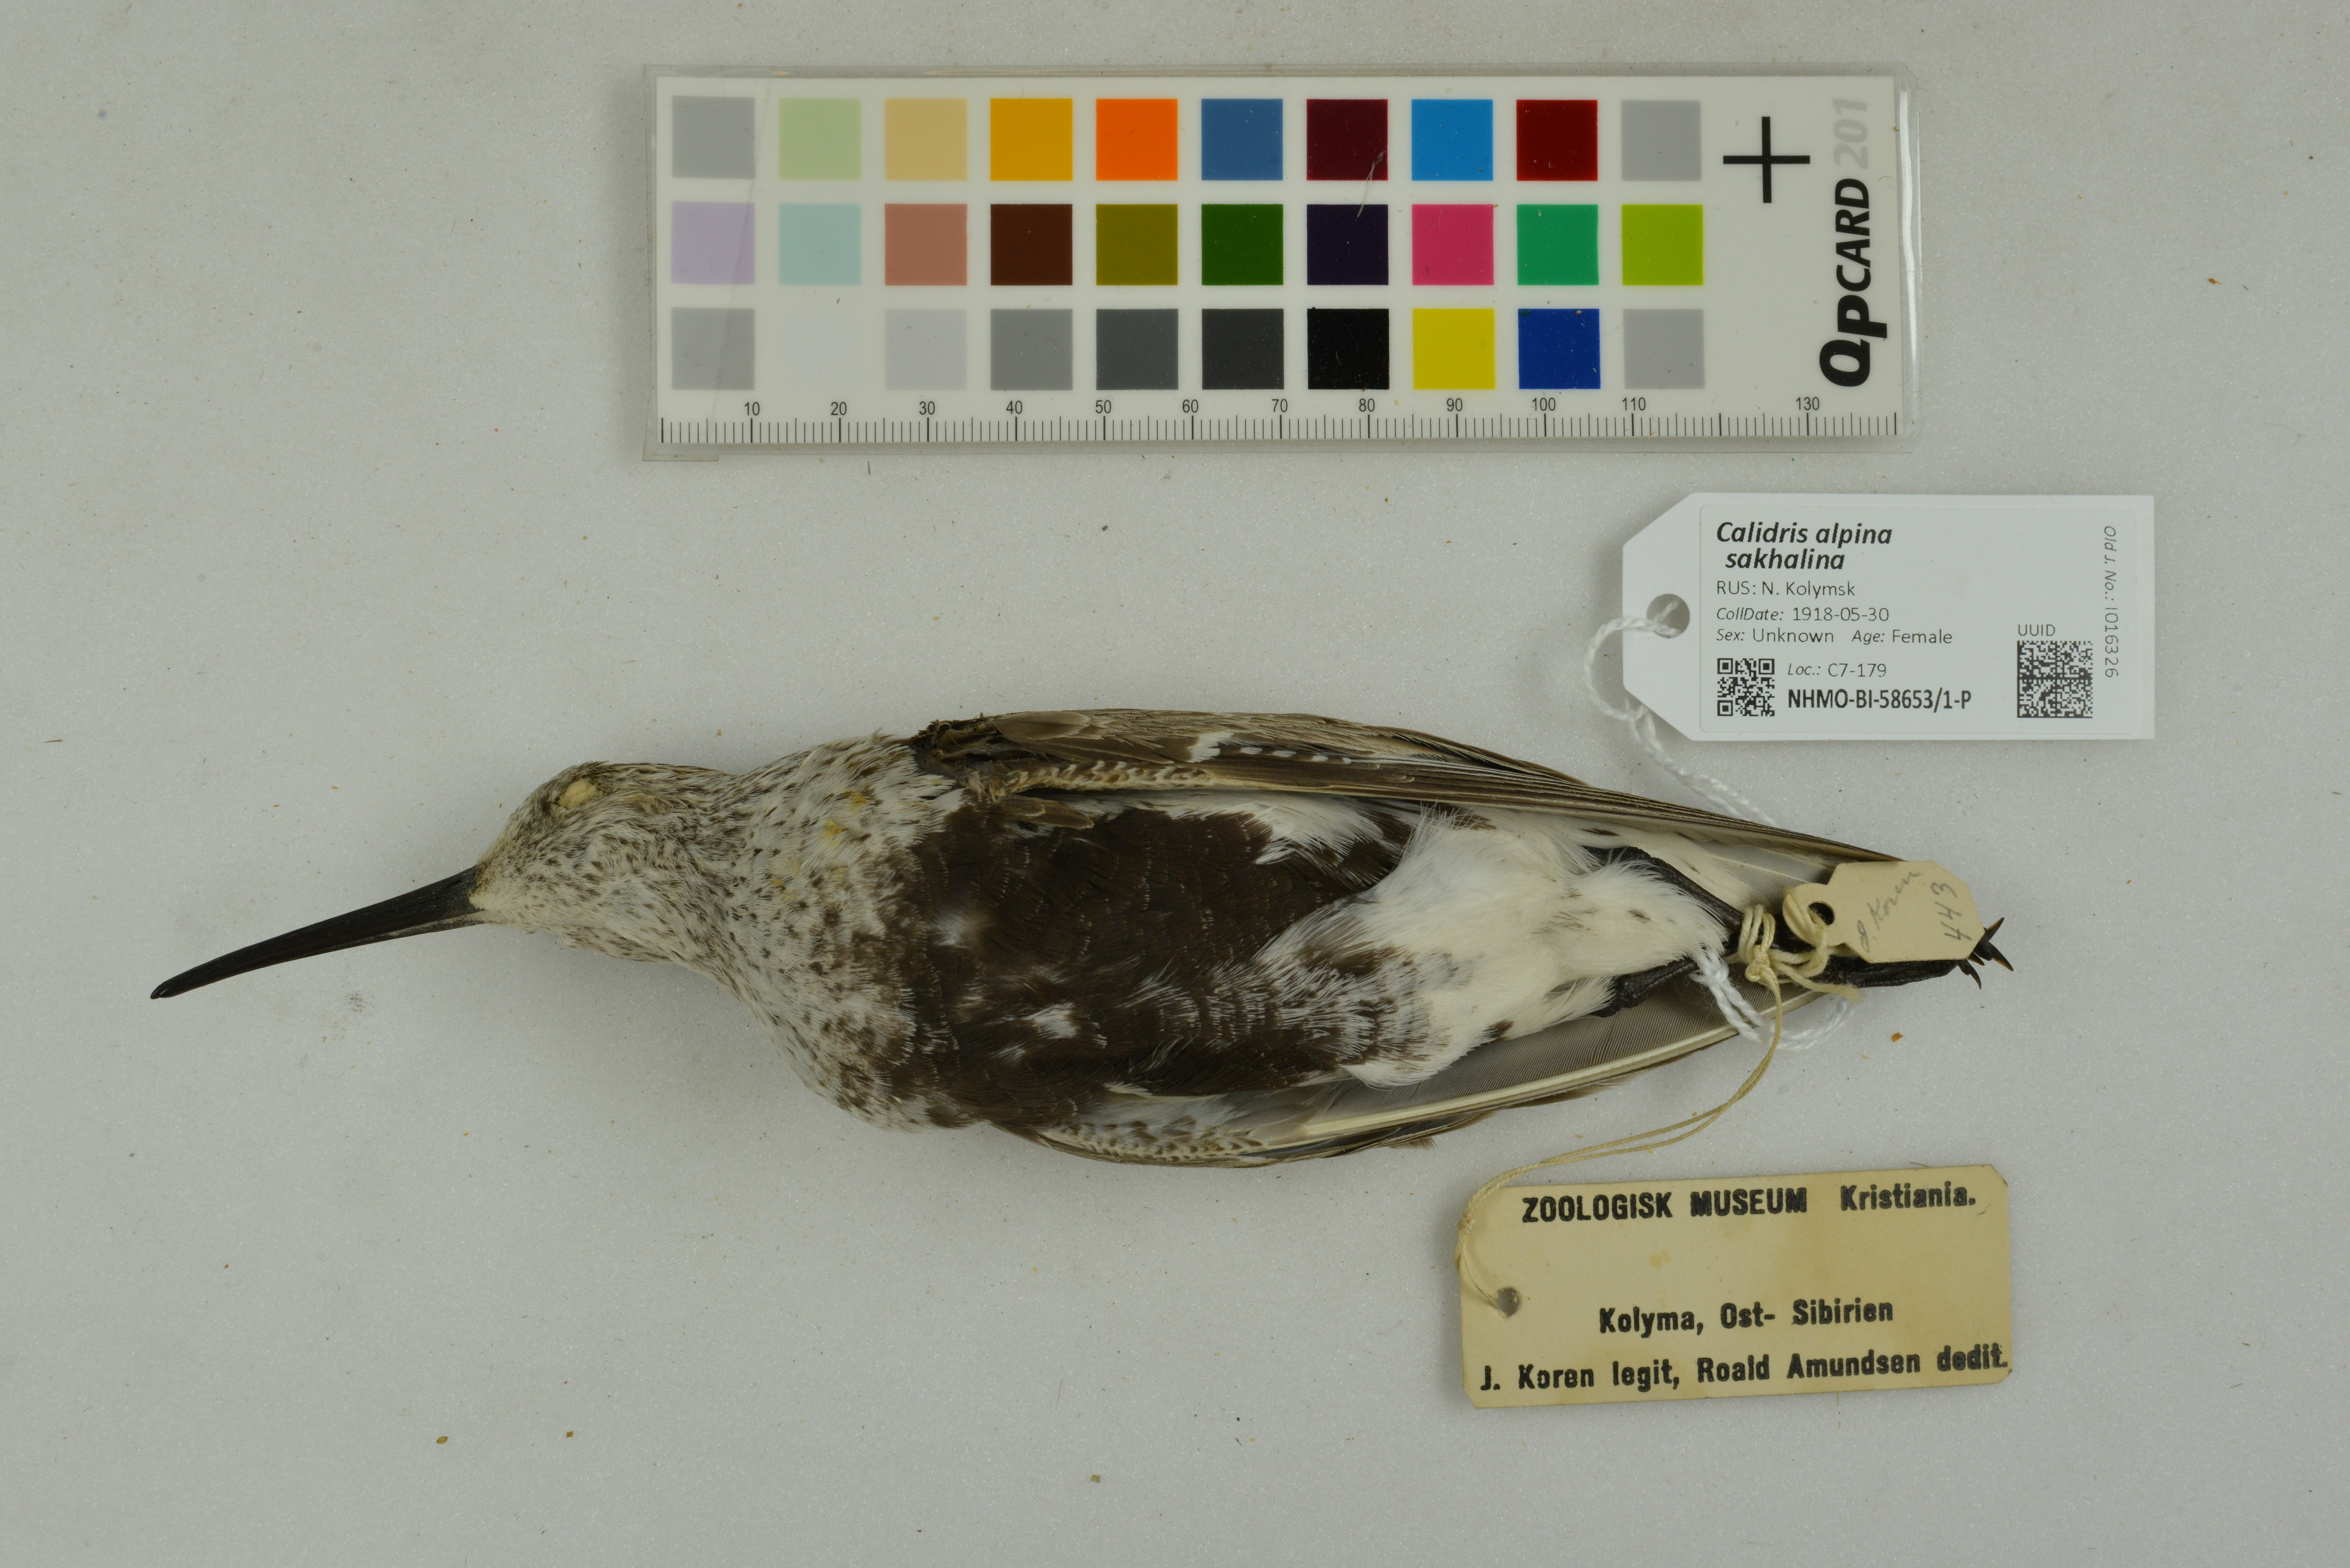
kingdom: Animalia
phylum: Chordata
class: Aves
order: Charadriiformes
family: Scolopacidae
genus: Calidris
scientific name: Calidris alpina
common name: Dunlin
